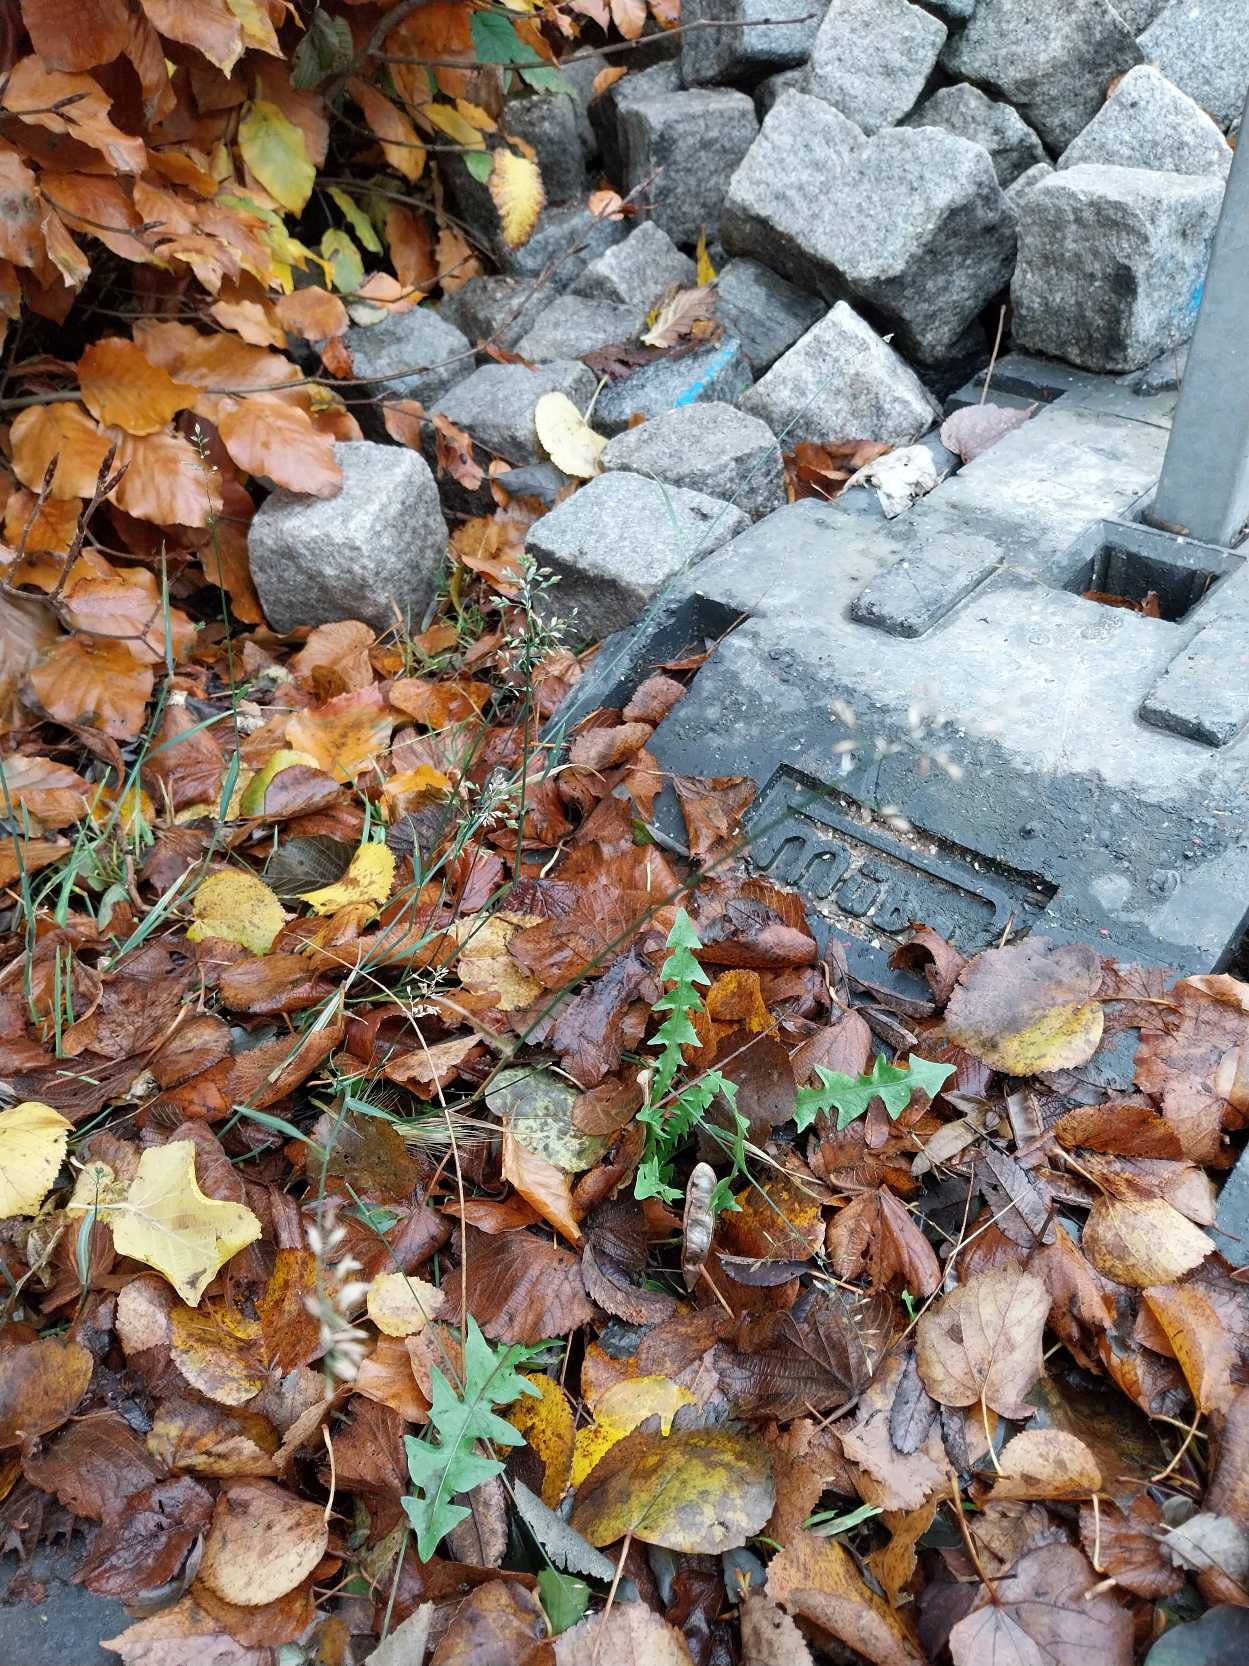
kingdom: Plantae
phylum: Tracheophyta
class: Liliopsida
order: Poales
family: Poaceae
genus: Poa
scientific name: Poa compressa
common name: Fladstrået rapgræs
